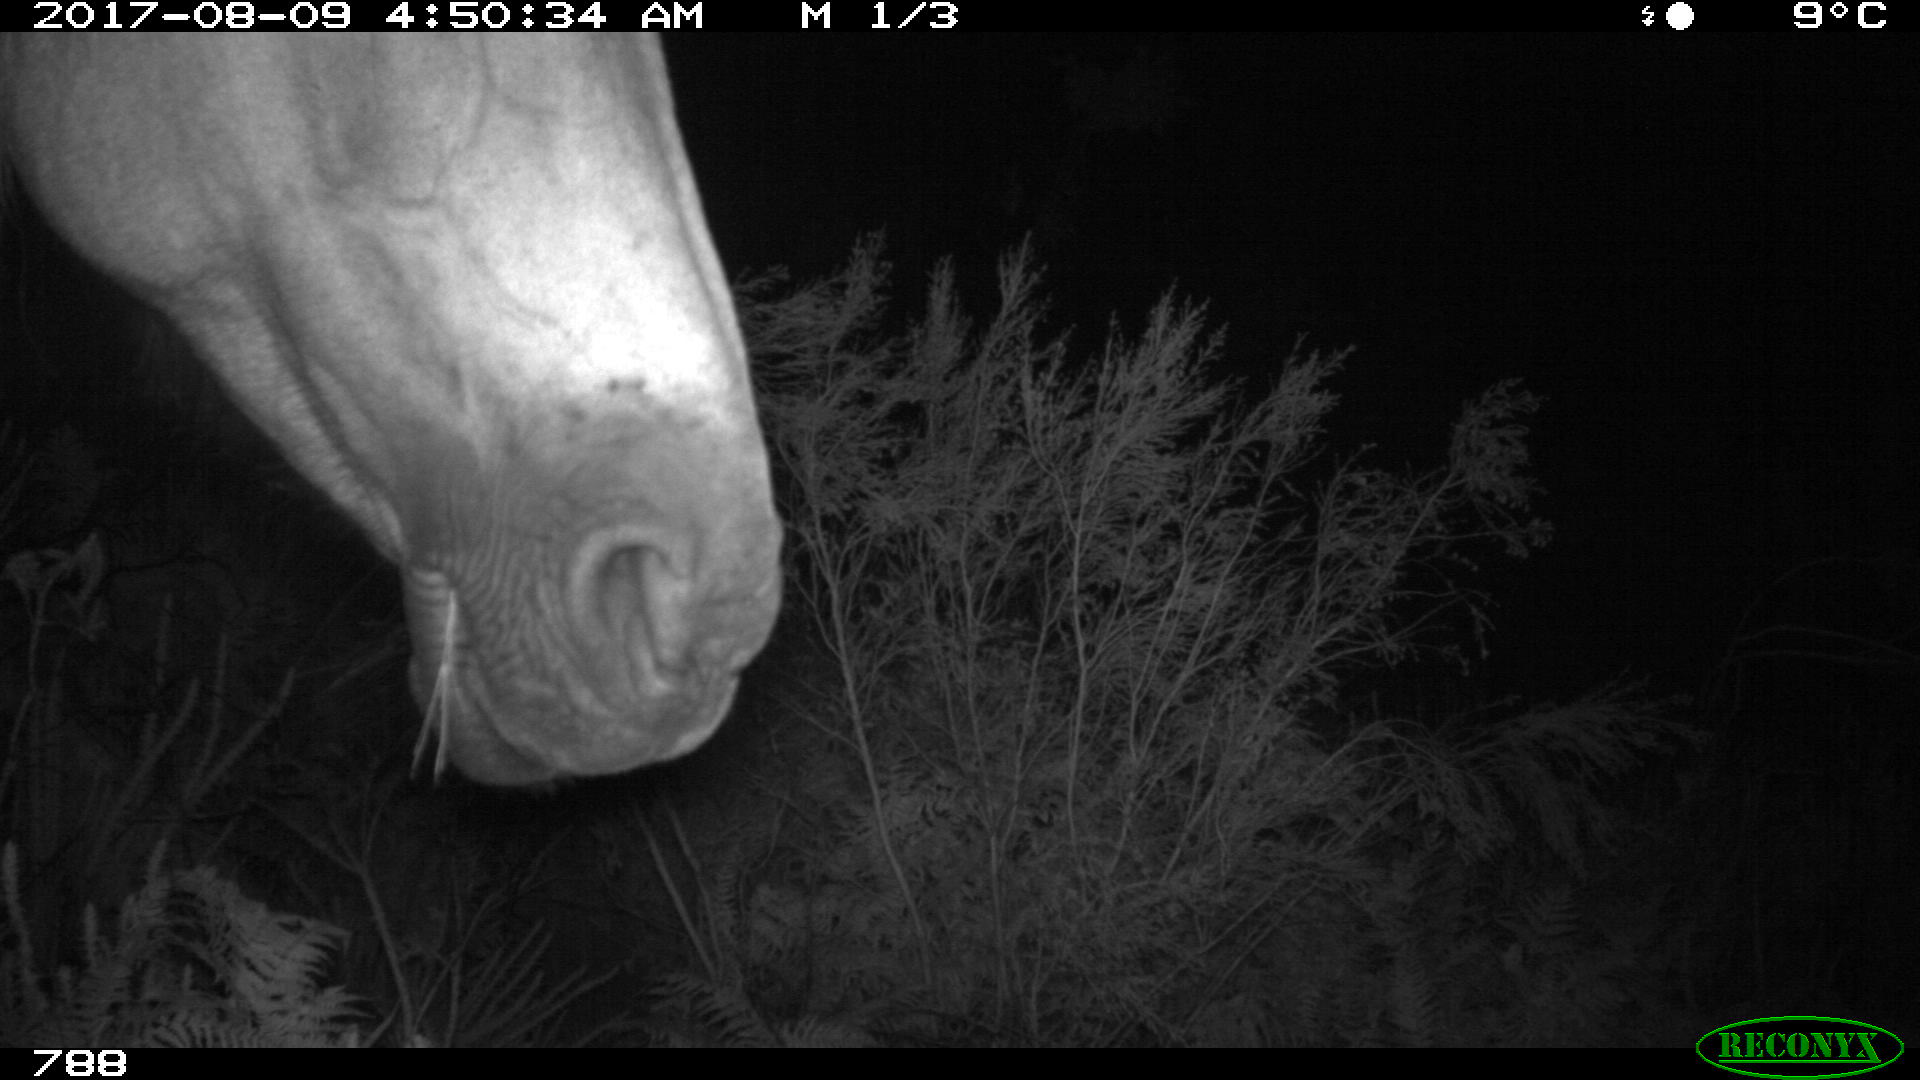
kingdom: Animalia
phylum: Chordata
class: Mammalia
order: Perissodactyla
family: Equidae
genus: Equus
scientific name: Equus caballus
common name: Horse
